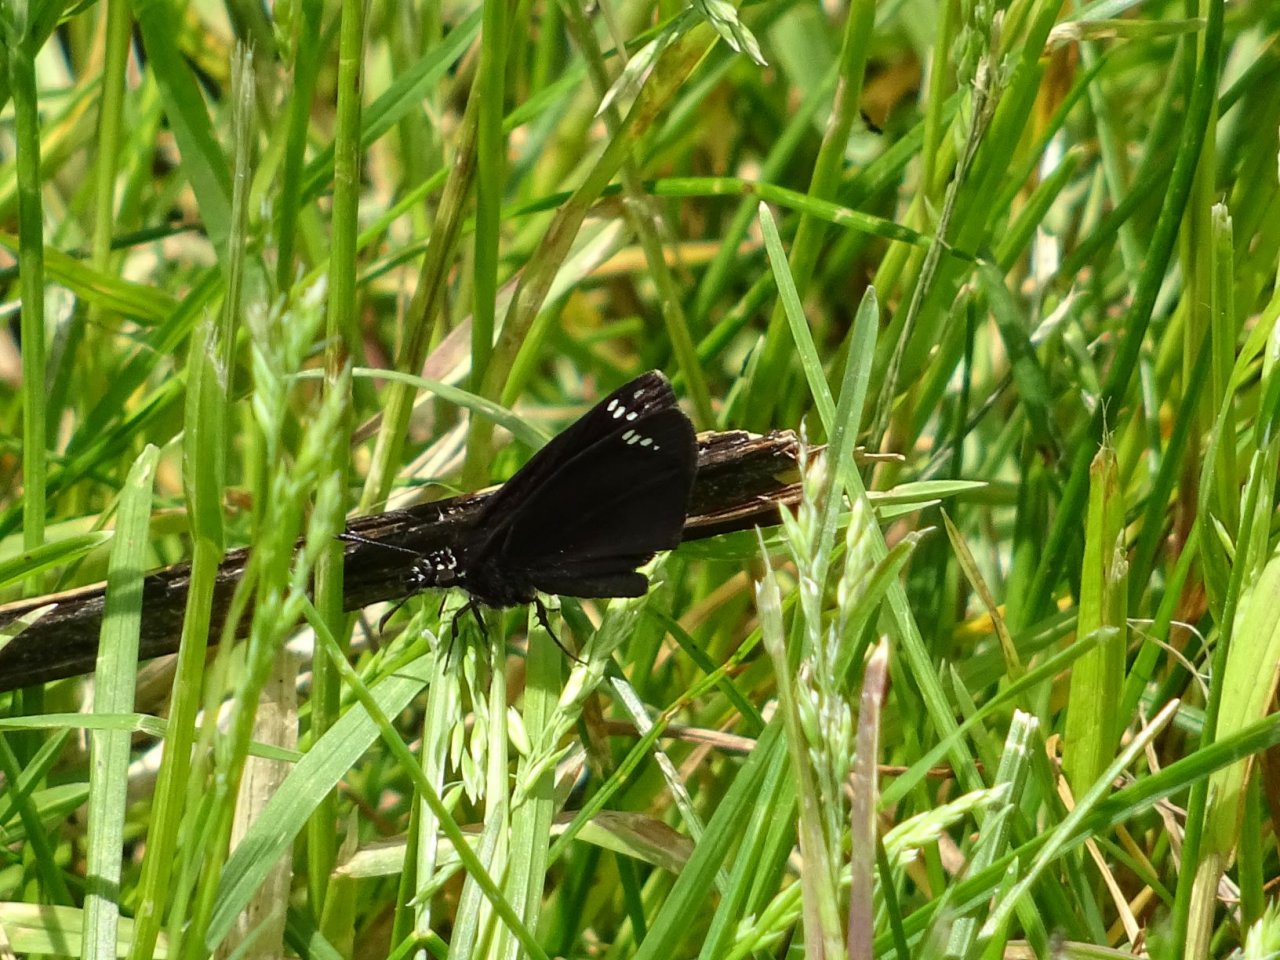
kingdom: Animalia
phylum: Arthropoda
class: Insecta
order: Lepidoptera
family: Hesperiidae
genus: Pholisora
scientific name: Pholisora catullus
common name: Common Sootywing
